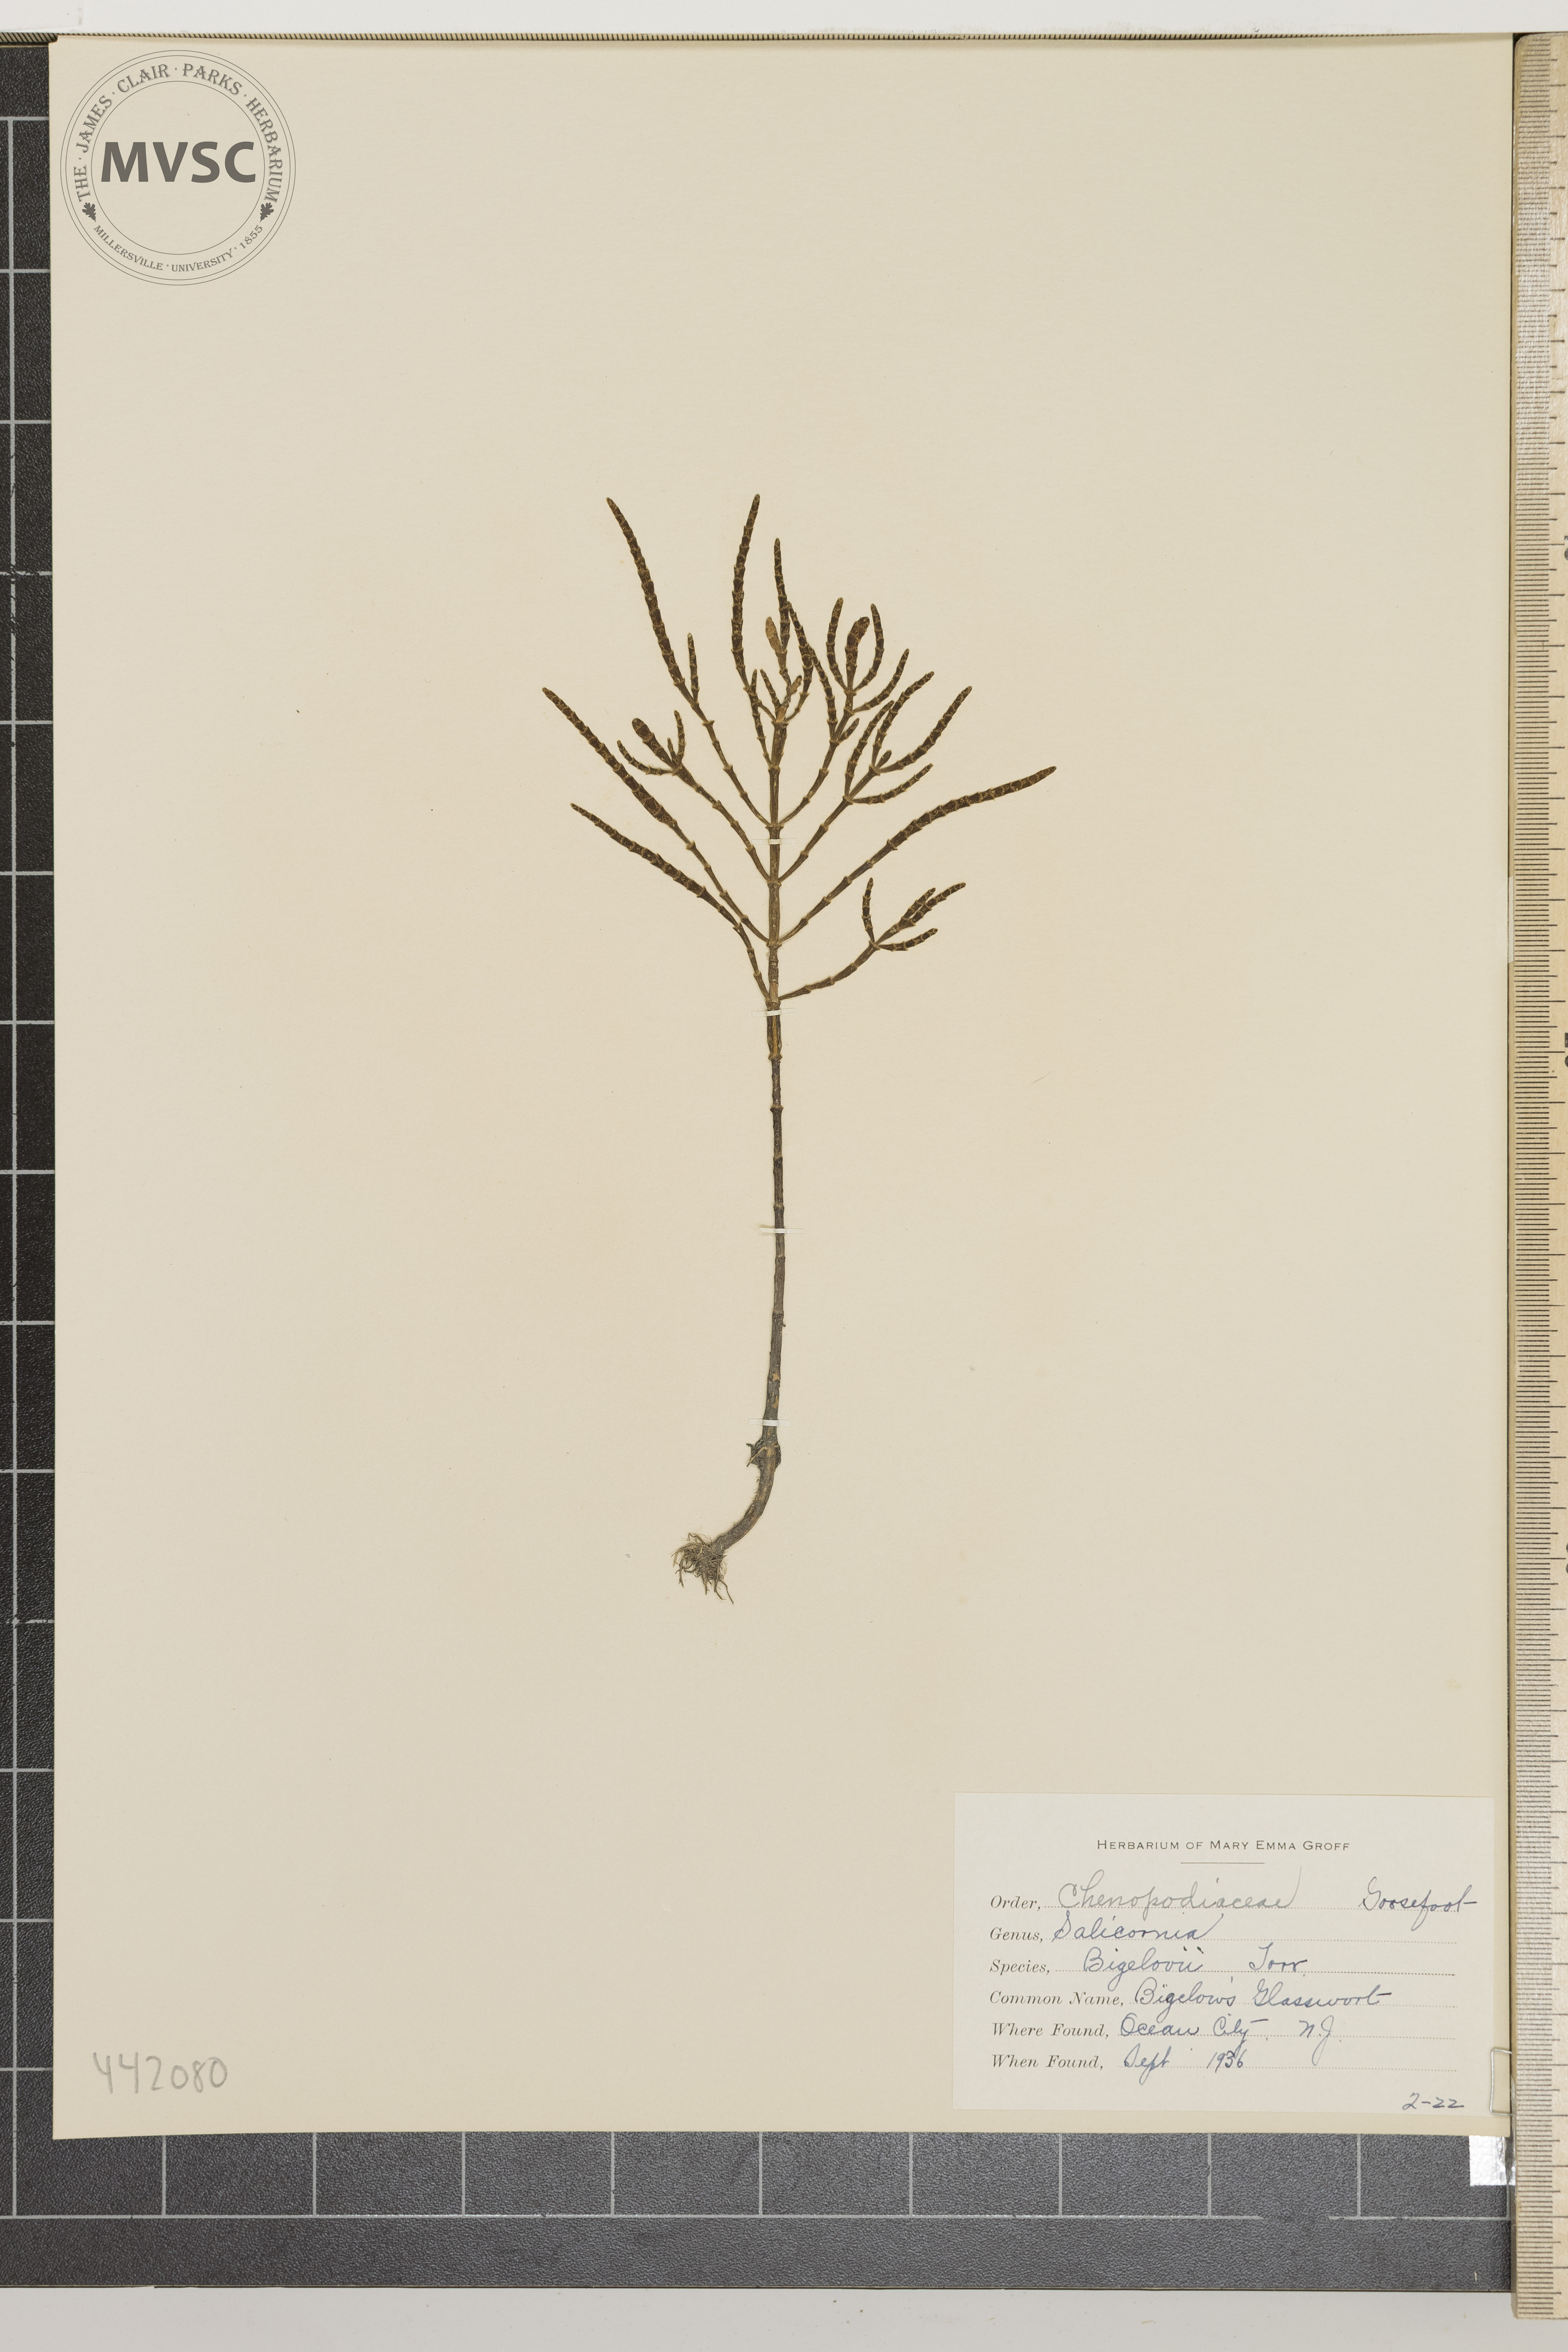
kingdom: Plantae
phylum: Tracheophyta
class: Magnoliopsida
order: Caryophyllales
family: Amaranthaceae
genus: Salicornia
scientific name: Salicornia bigelovii
